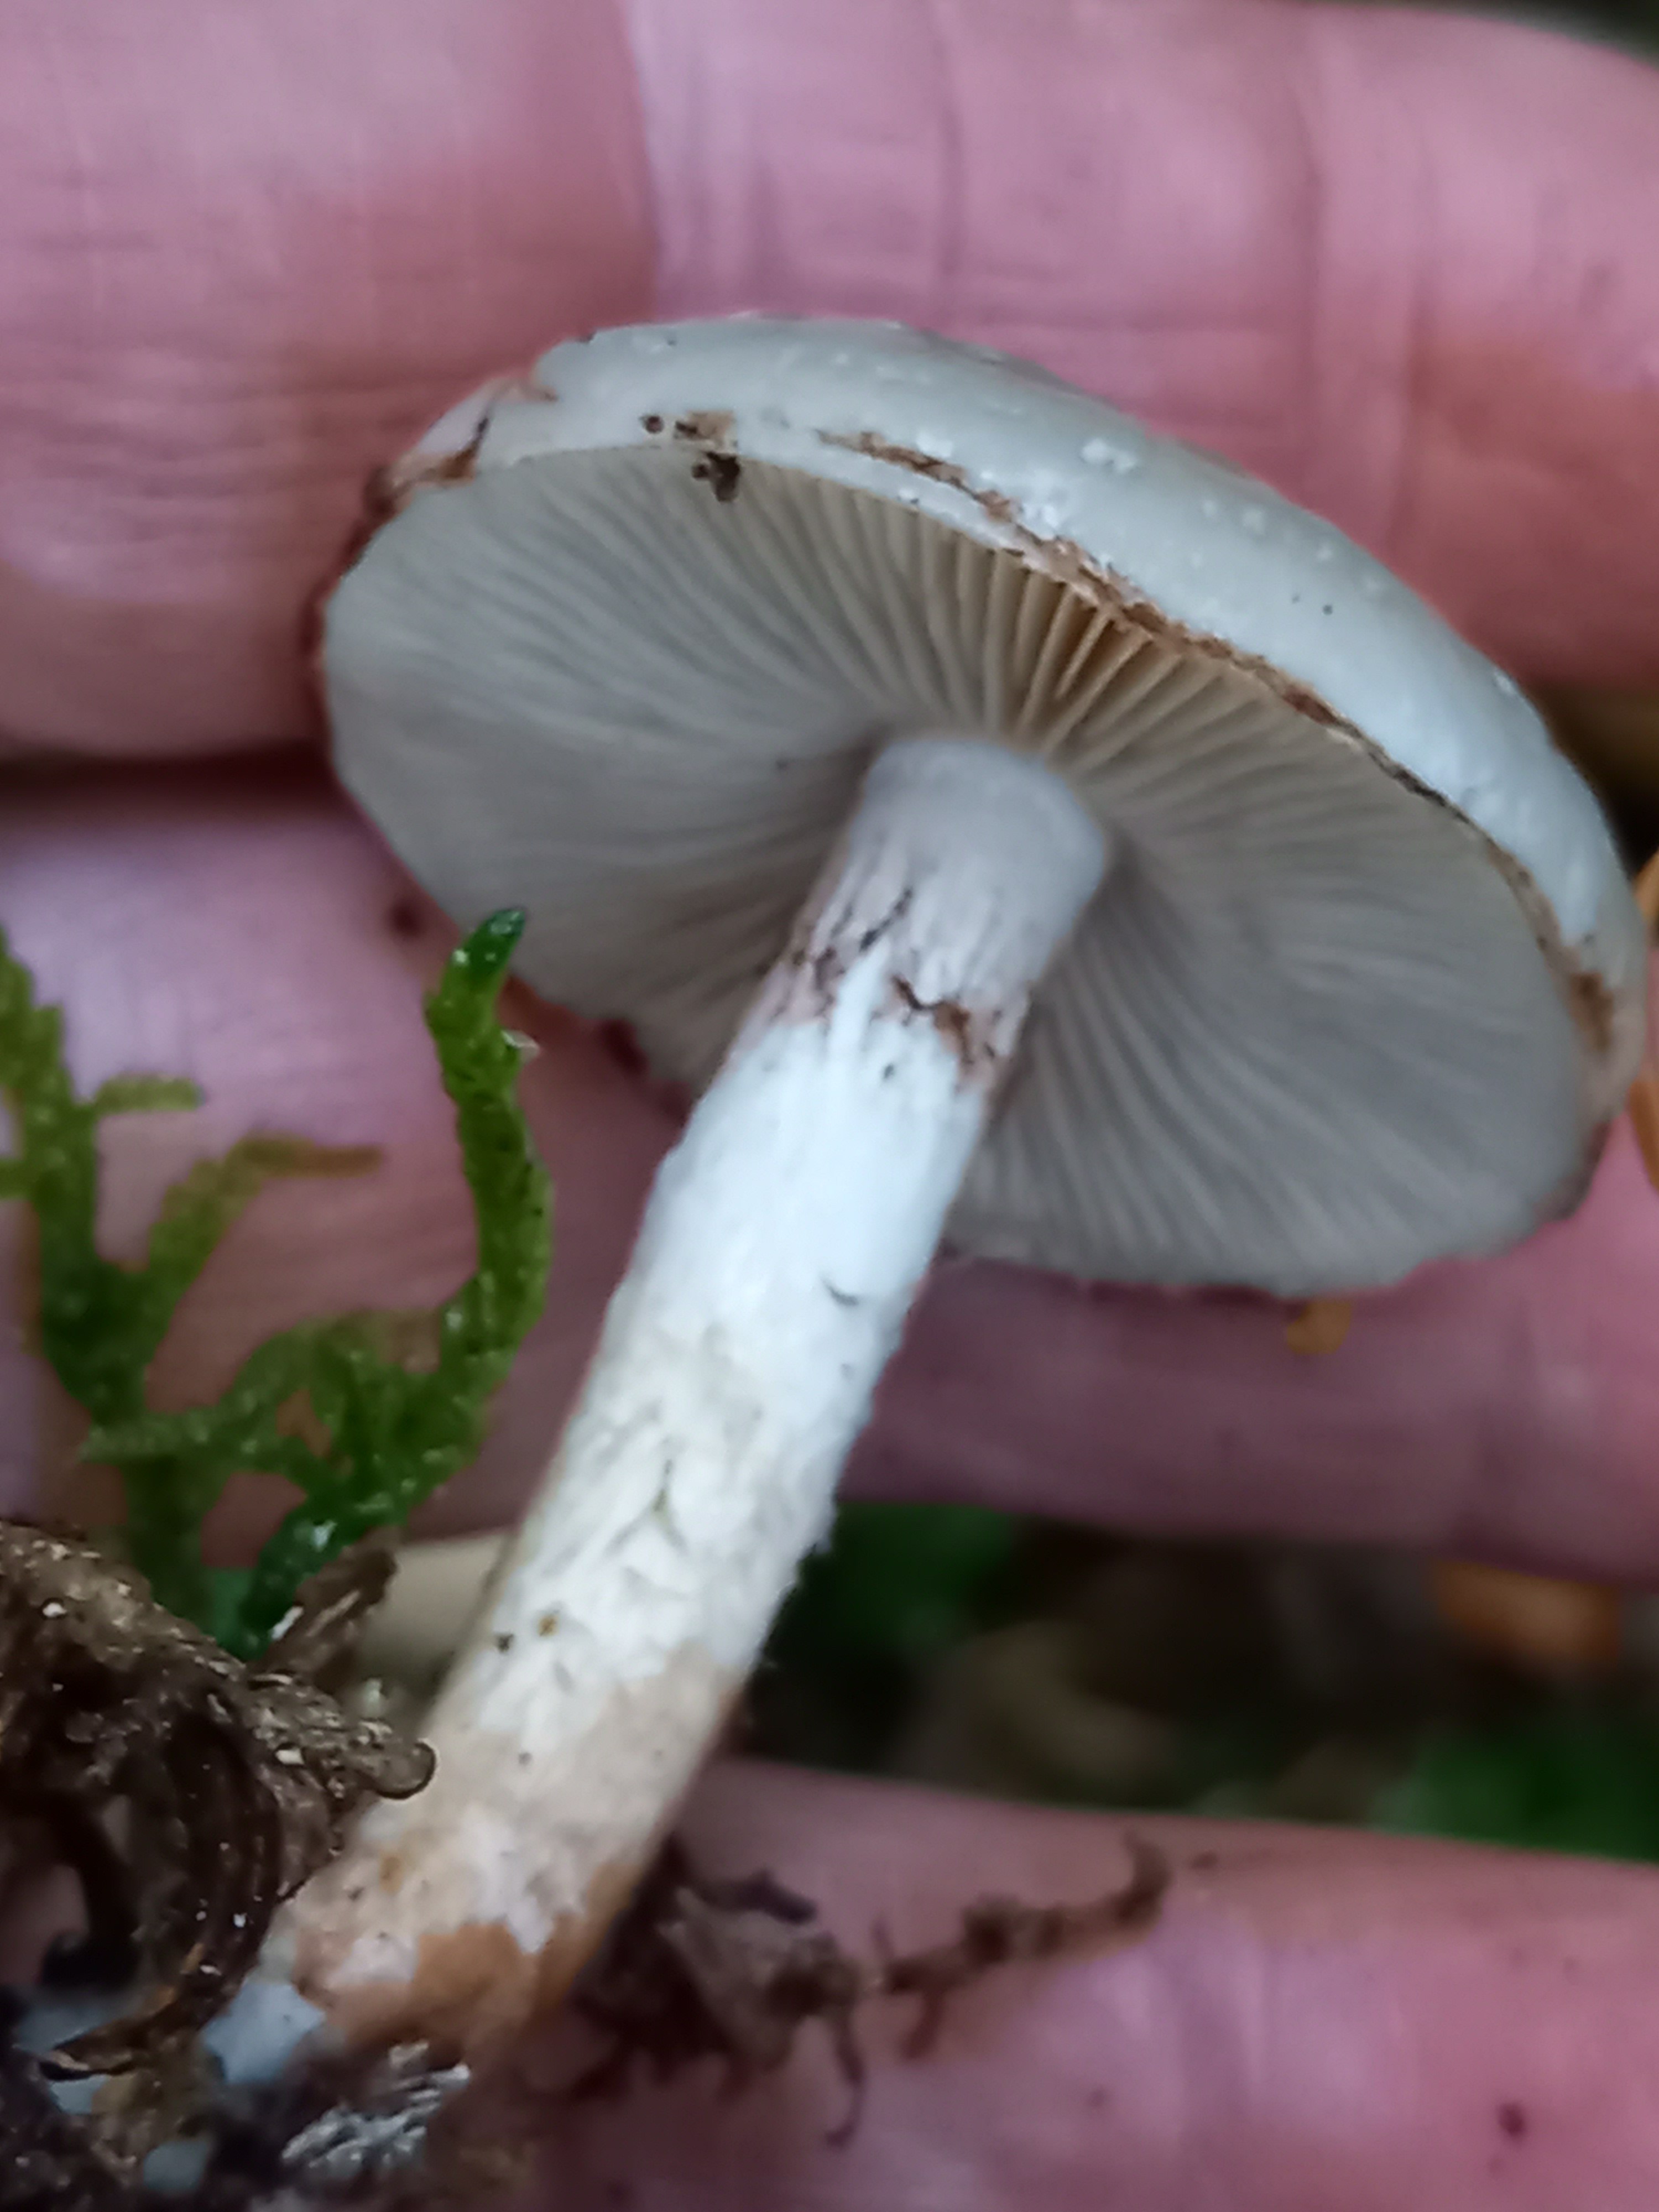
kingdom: Fungi
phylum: Basidiomycota
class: Agaricomycetes
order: Agaricales
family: Strophariaceae
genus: Pholiota
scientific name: Pholiota lenta
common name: løv-skælhat
